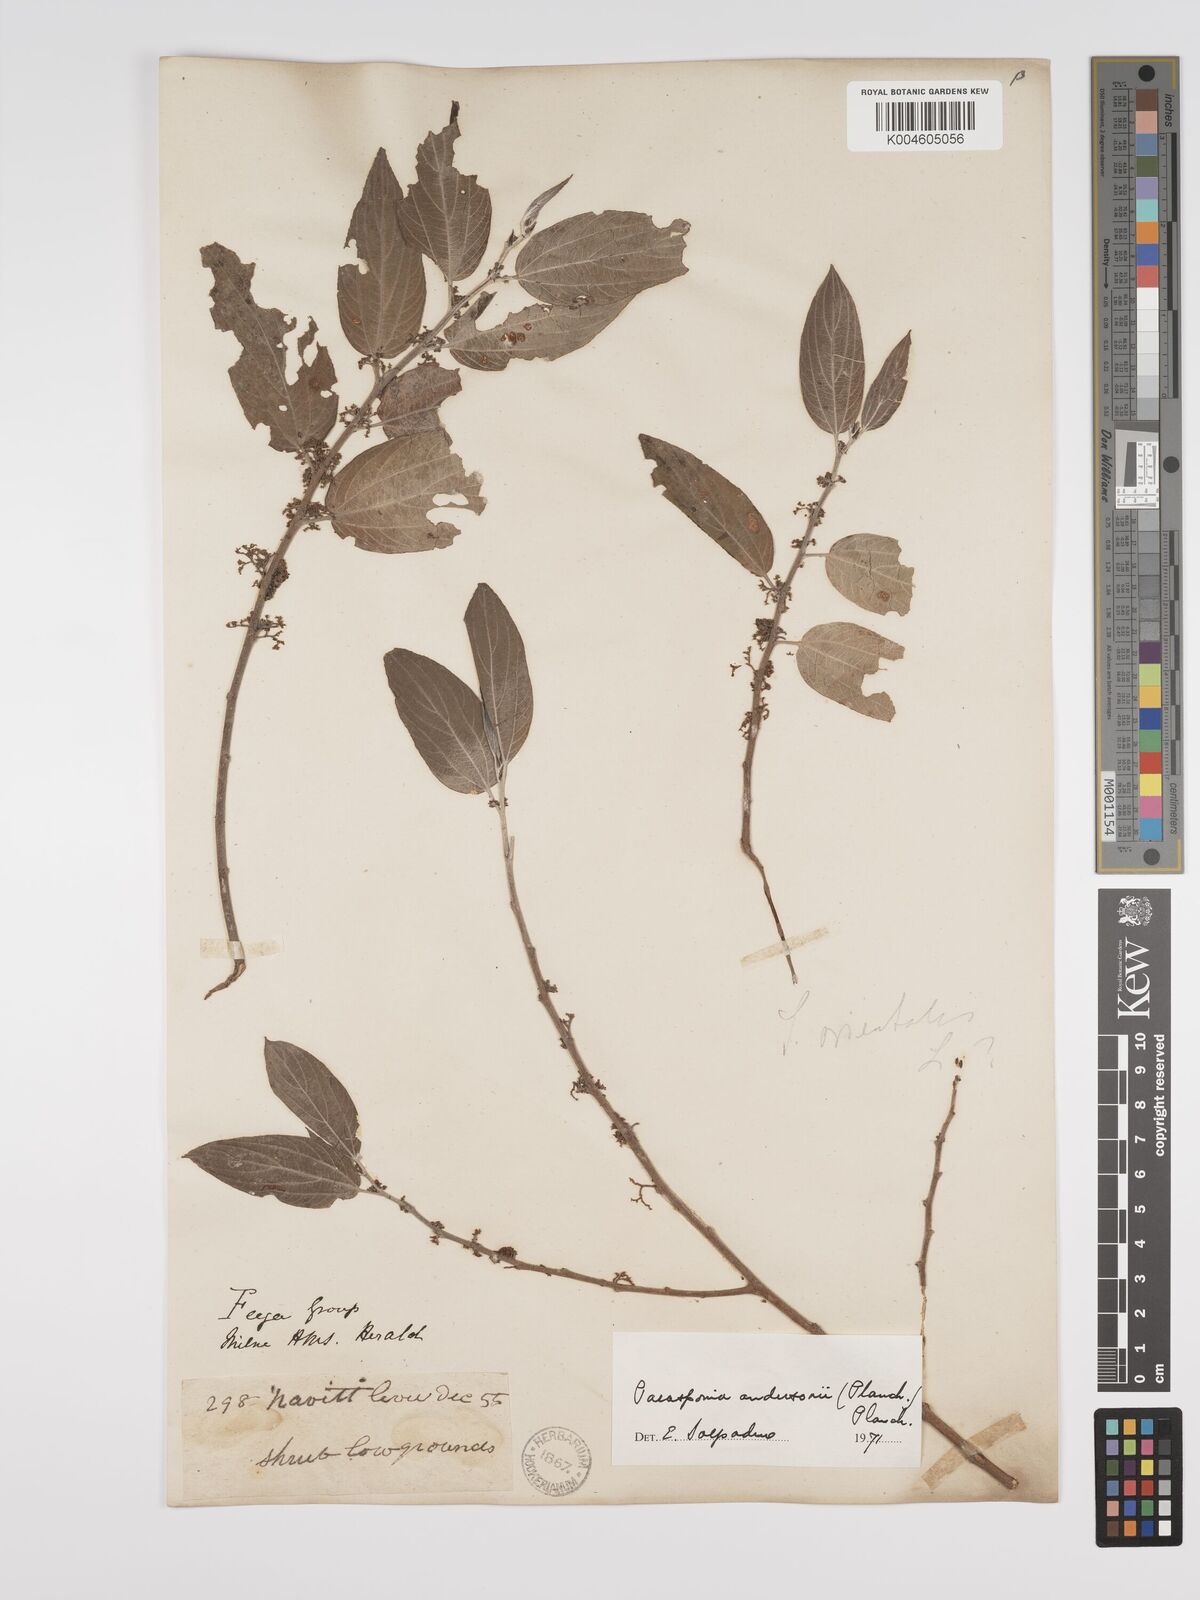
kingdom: Plantae
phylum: Tracheophyta
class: Magnoliopsida
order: Rosales
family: Cannabaceae
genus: Trema
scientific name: Trema andersonii
